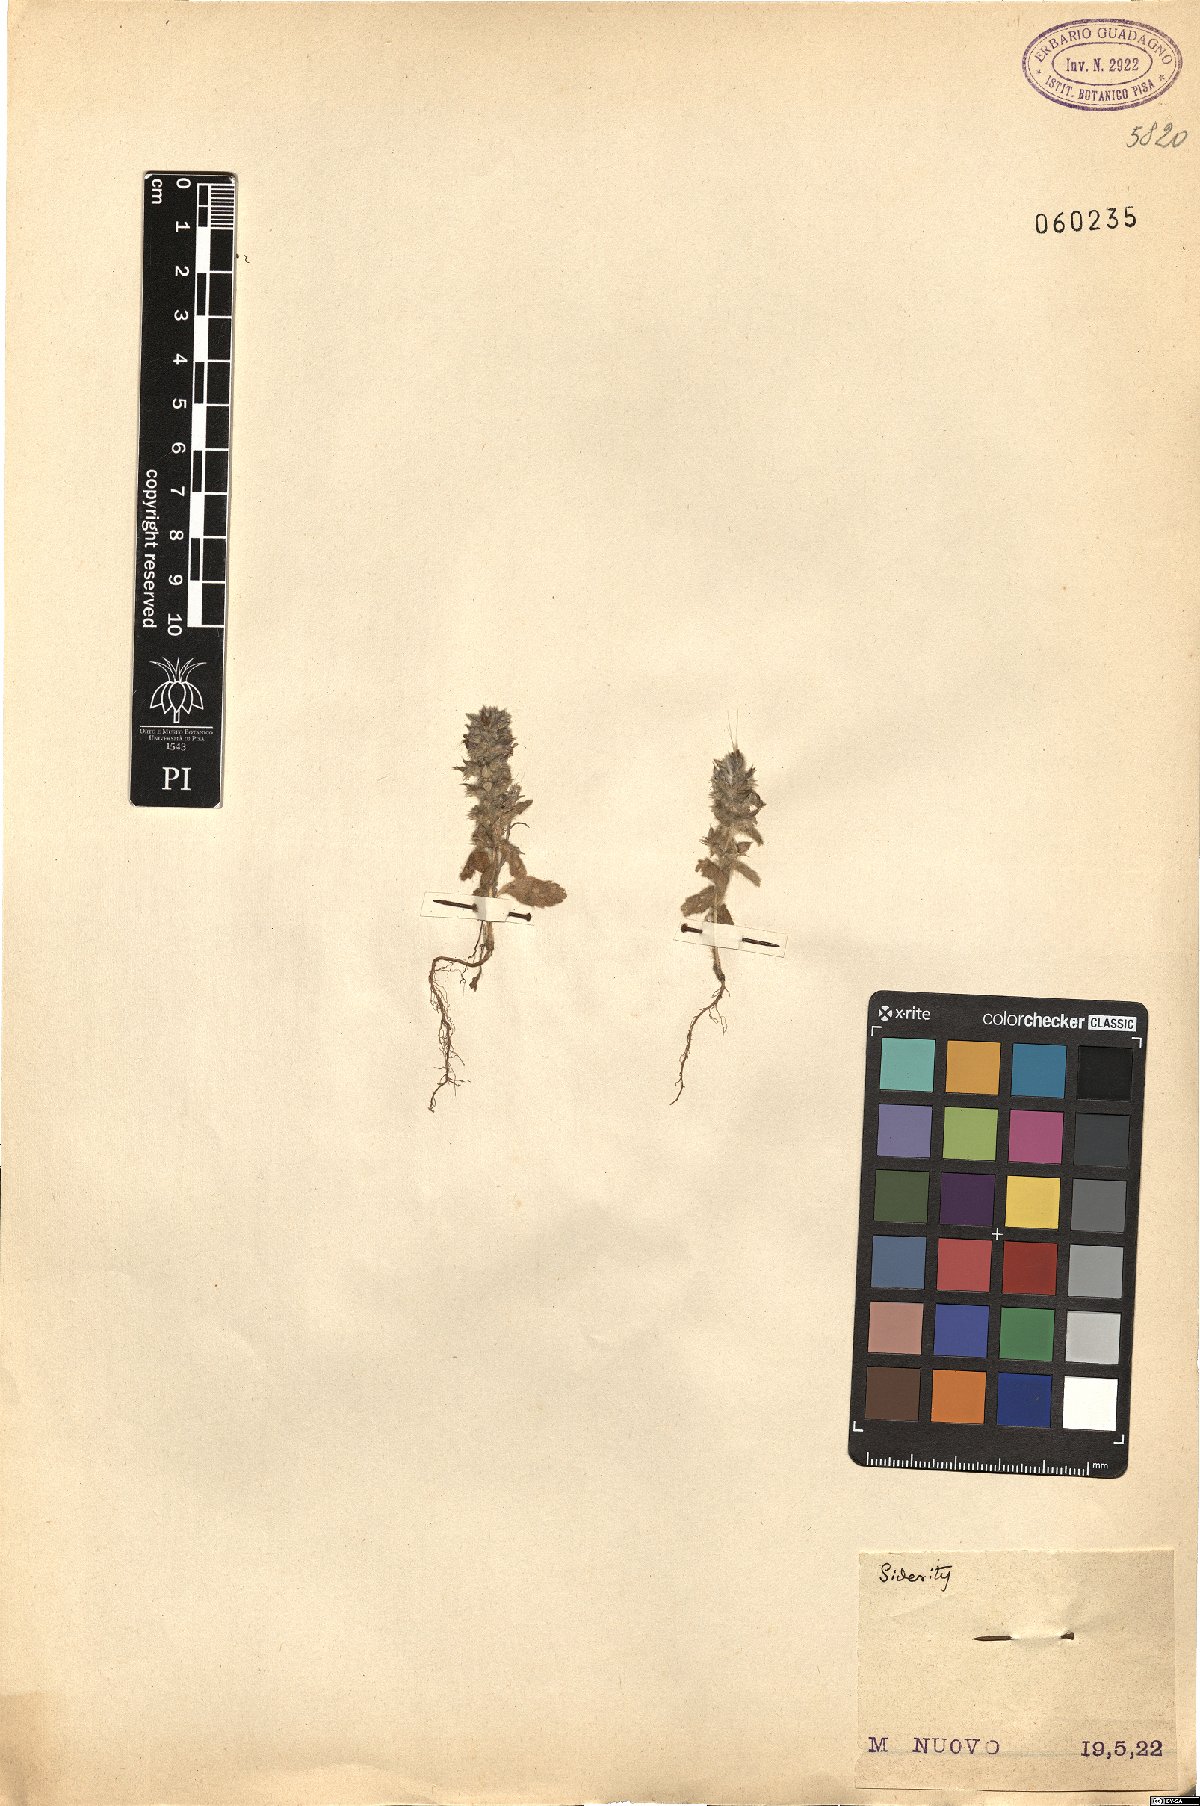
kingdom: Plantae
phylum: Tracheophyta
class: Magnoliopsida
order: Lamiales
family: Lamiaceae
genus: Sideritis
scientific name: Sideritis
